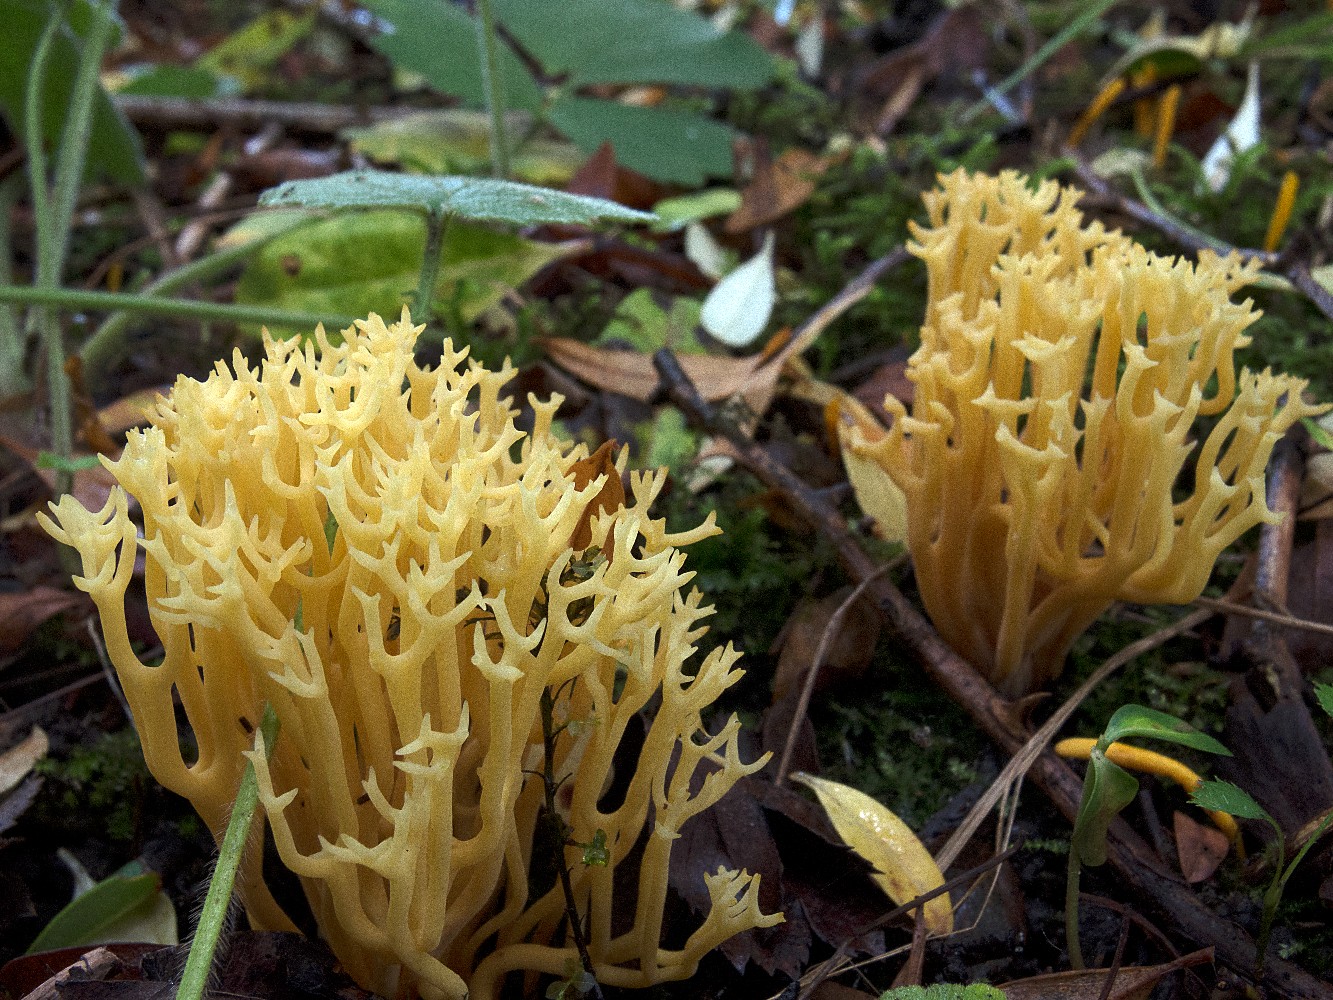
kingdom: Fungi
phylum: Basidiomycota
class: Agaricomycetes
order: Agaricales
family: Clavariaceae
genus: Clavulinopsis
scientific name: Clavulinopsis corniculata
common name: eng-køllesvamp
